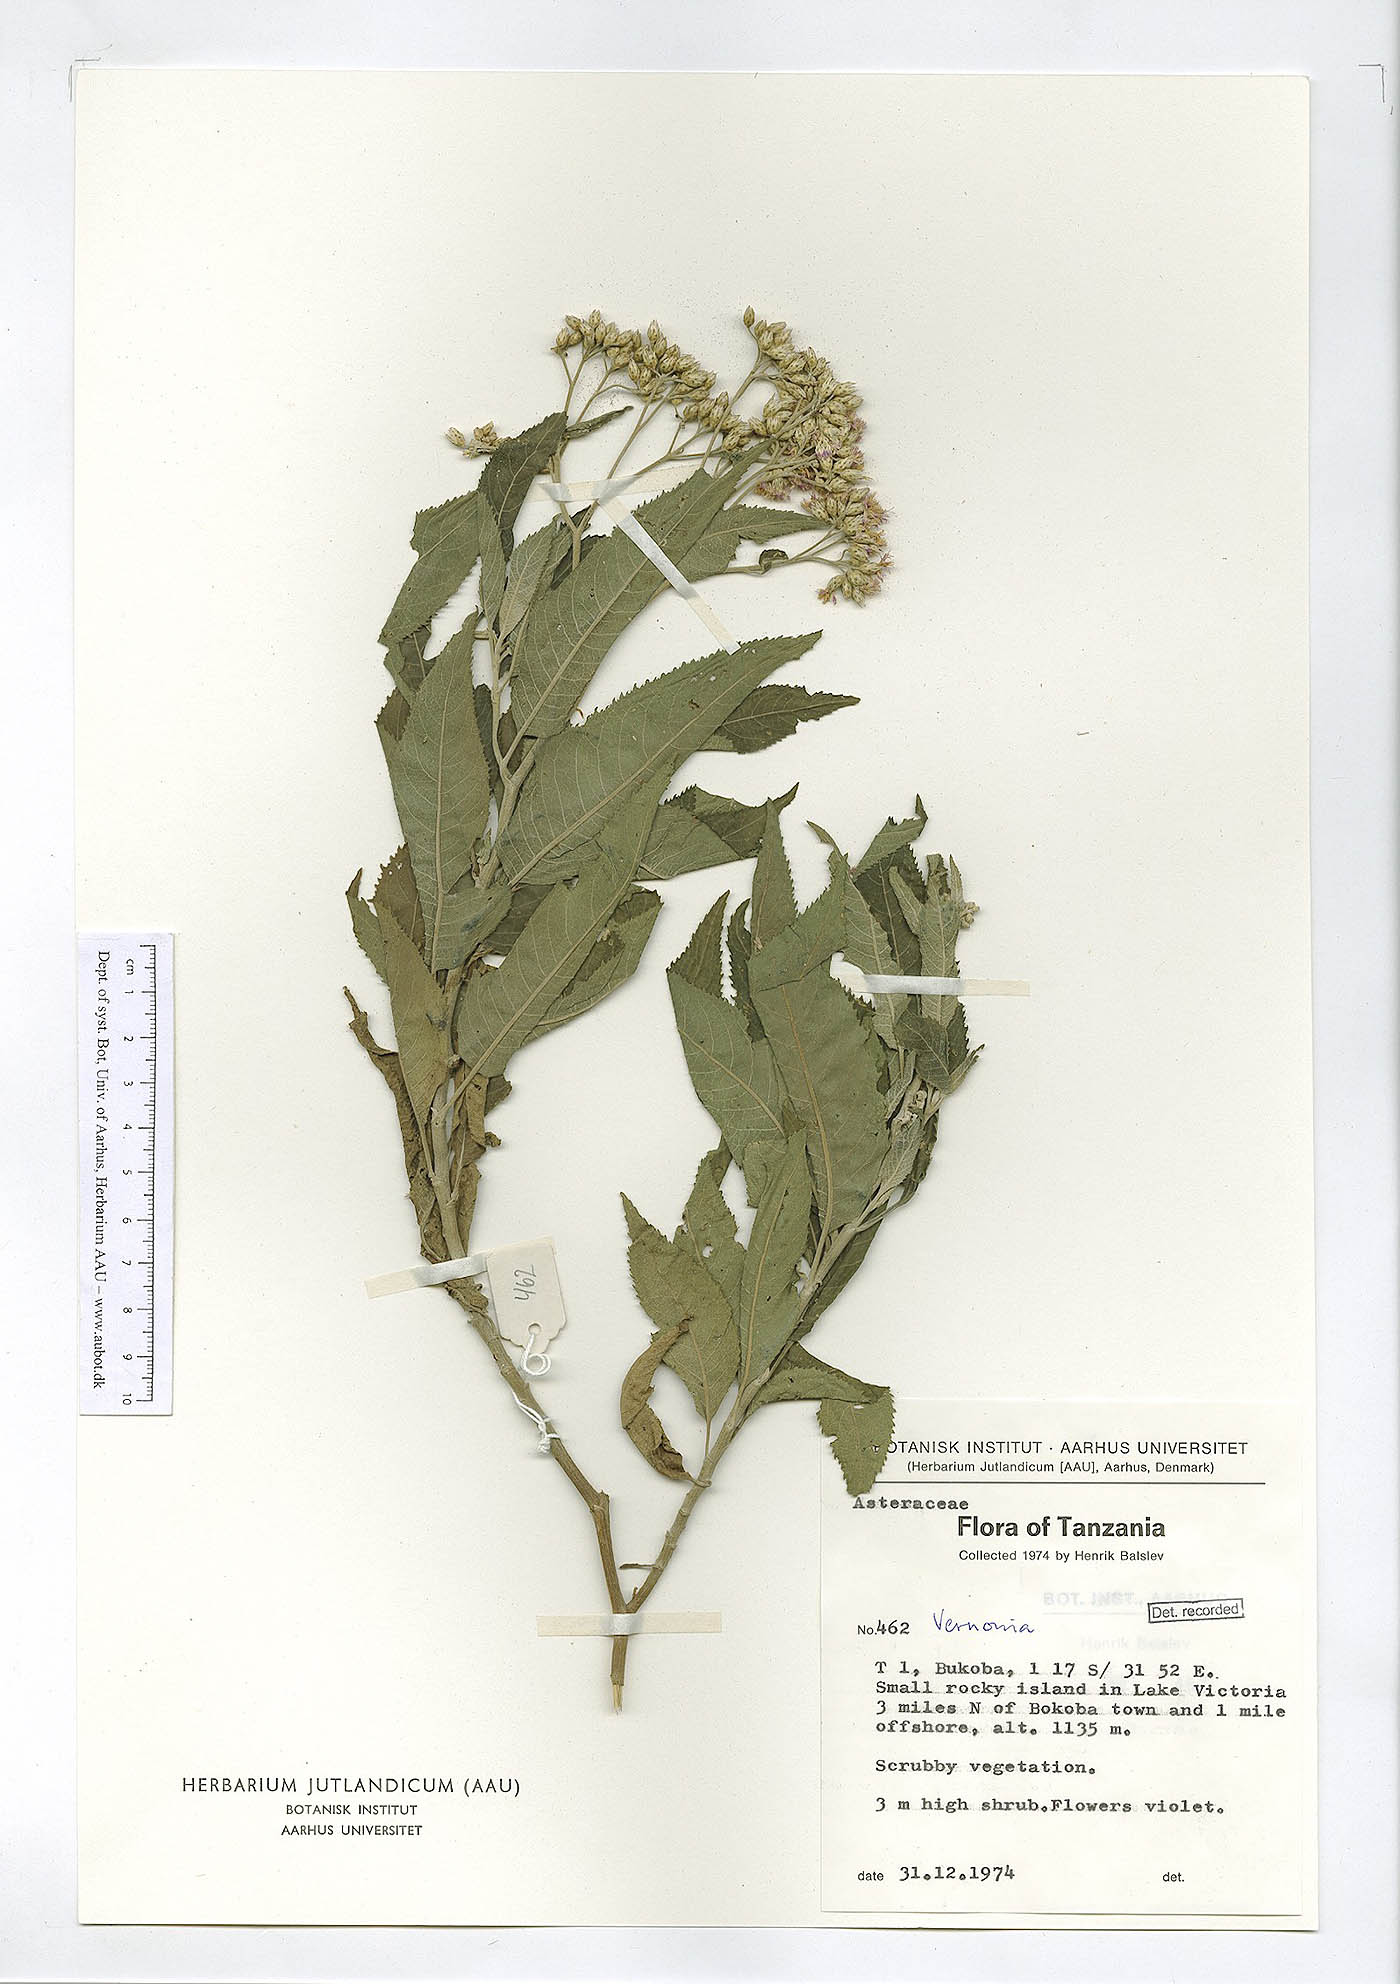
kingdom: Plantae
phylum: Tracheophyta
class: Magnoliopsida
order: Asterales
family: Asteraceae
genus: Vernonia
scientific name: Vernonia
